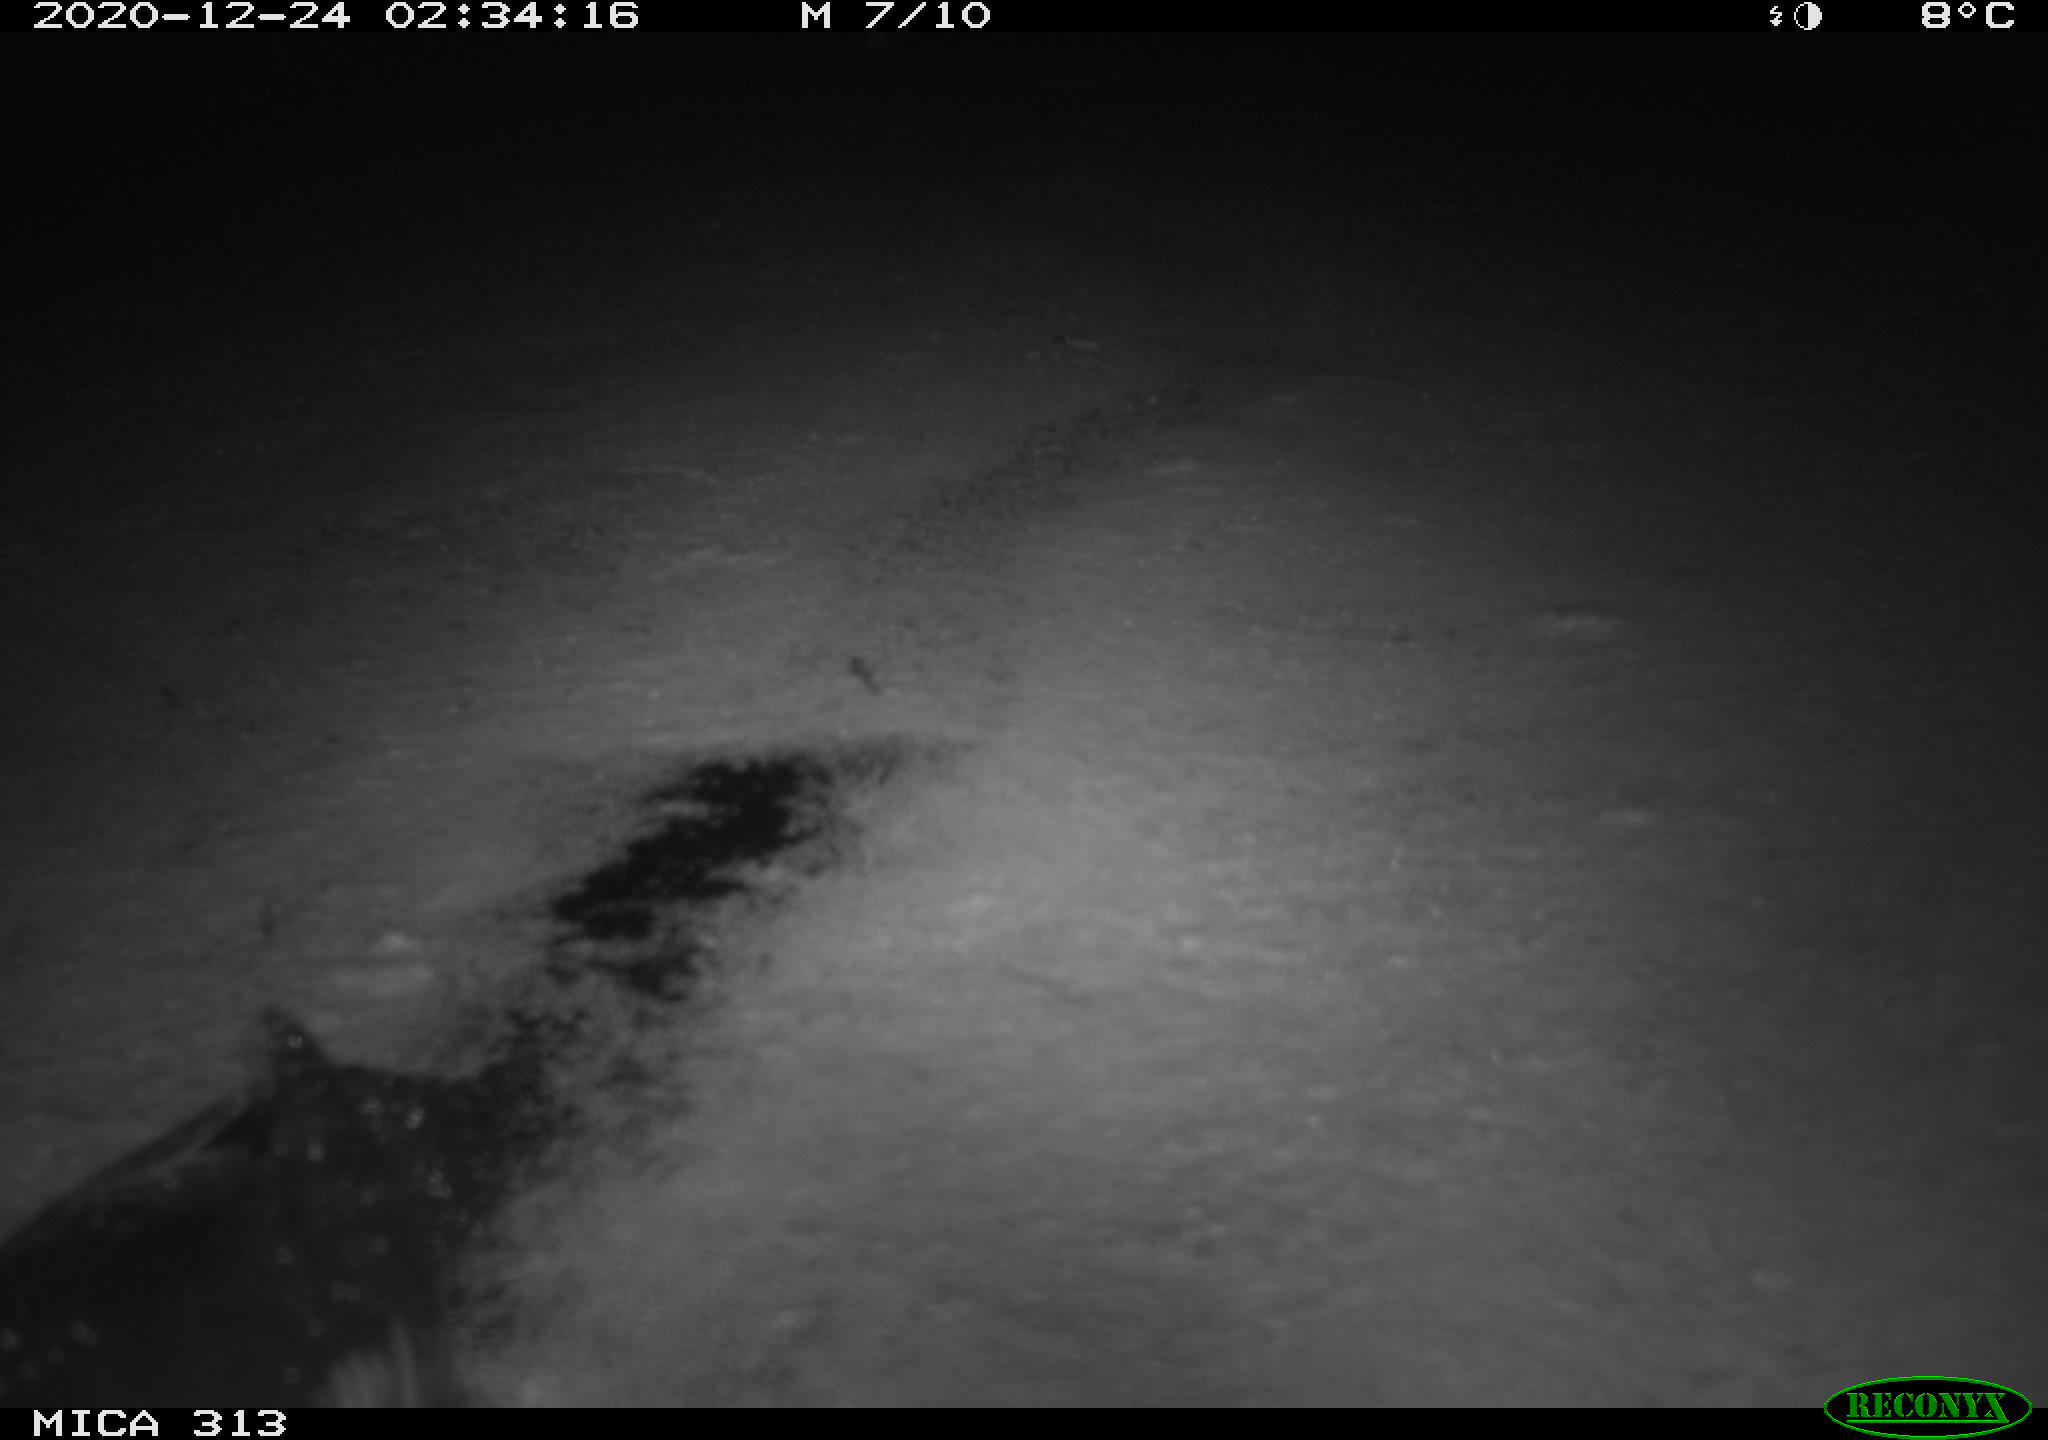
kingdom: Animalia
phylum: Chordata
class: Aves
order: Gruiformes
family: Rallidae
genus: Fulica
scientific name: Fulica atra
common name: Eurasian coot
